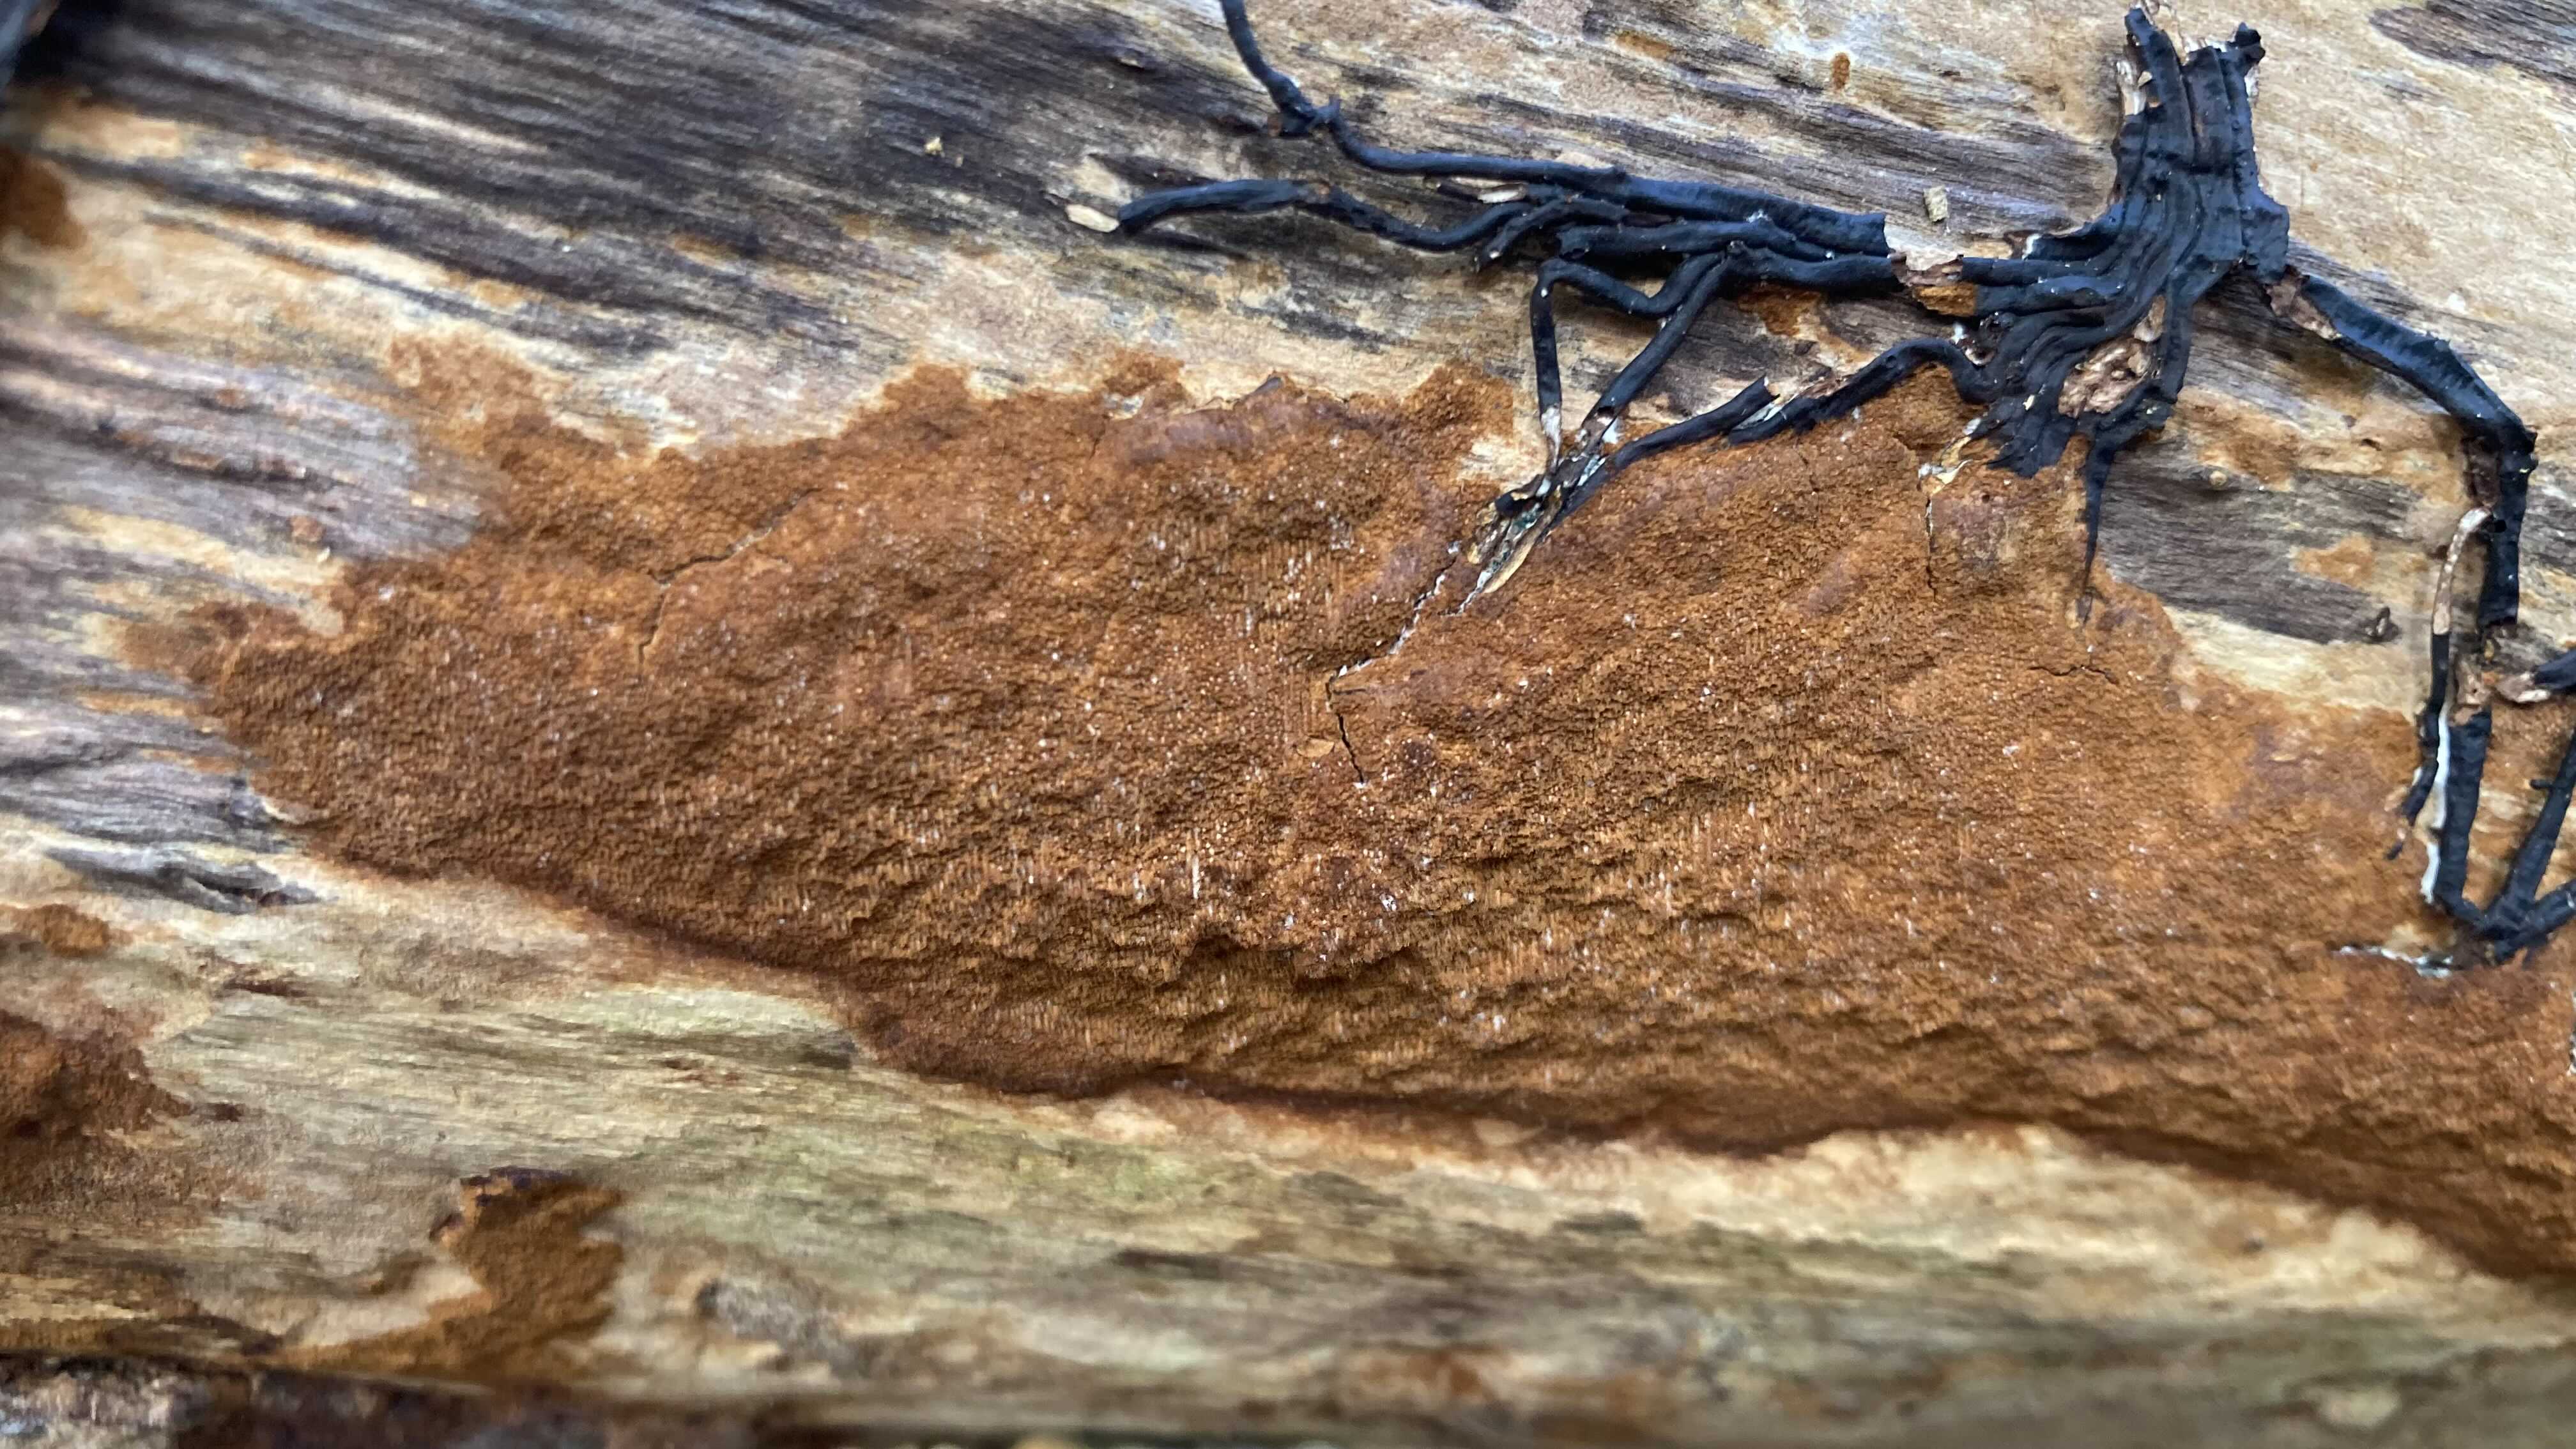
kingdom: Fungi
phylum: Basidiomycota
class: Agaricomycetes
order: Hymenochaetales
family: Hymenochaetaceae
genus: Fuscoporia
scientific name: Fuscoporia ferrea
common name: skorpe-ildporesvamp
